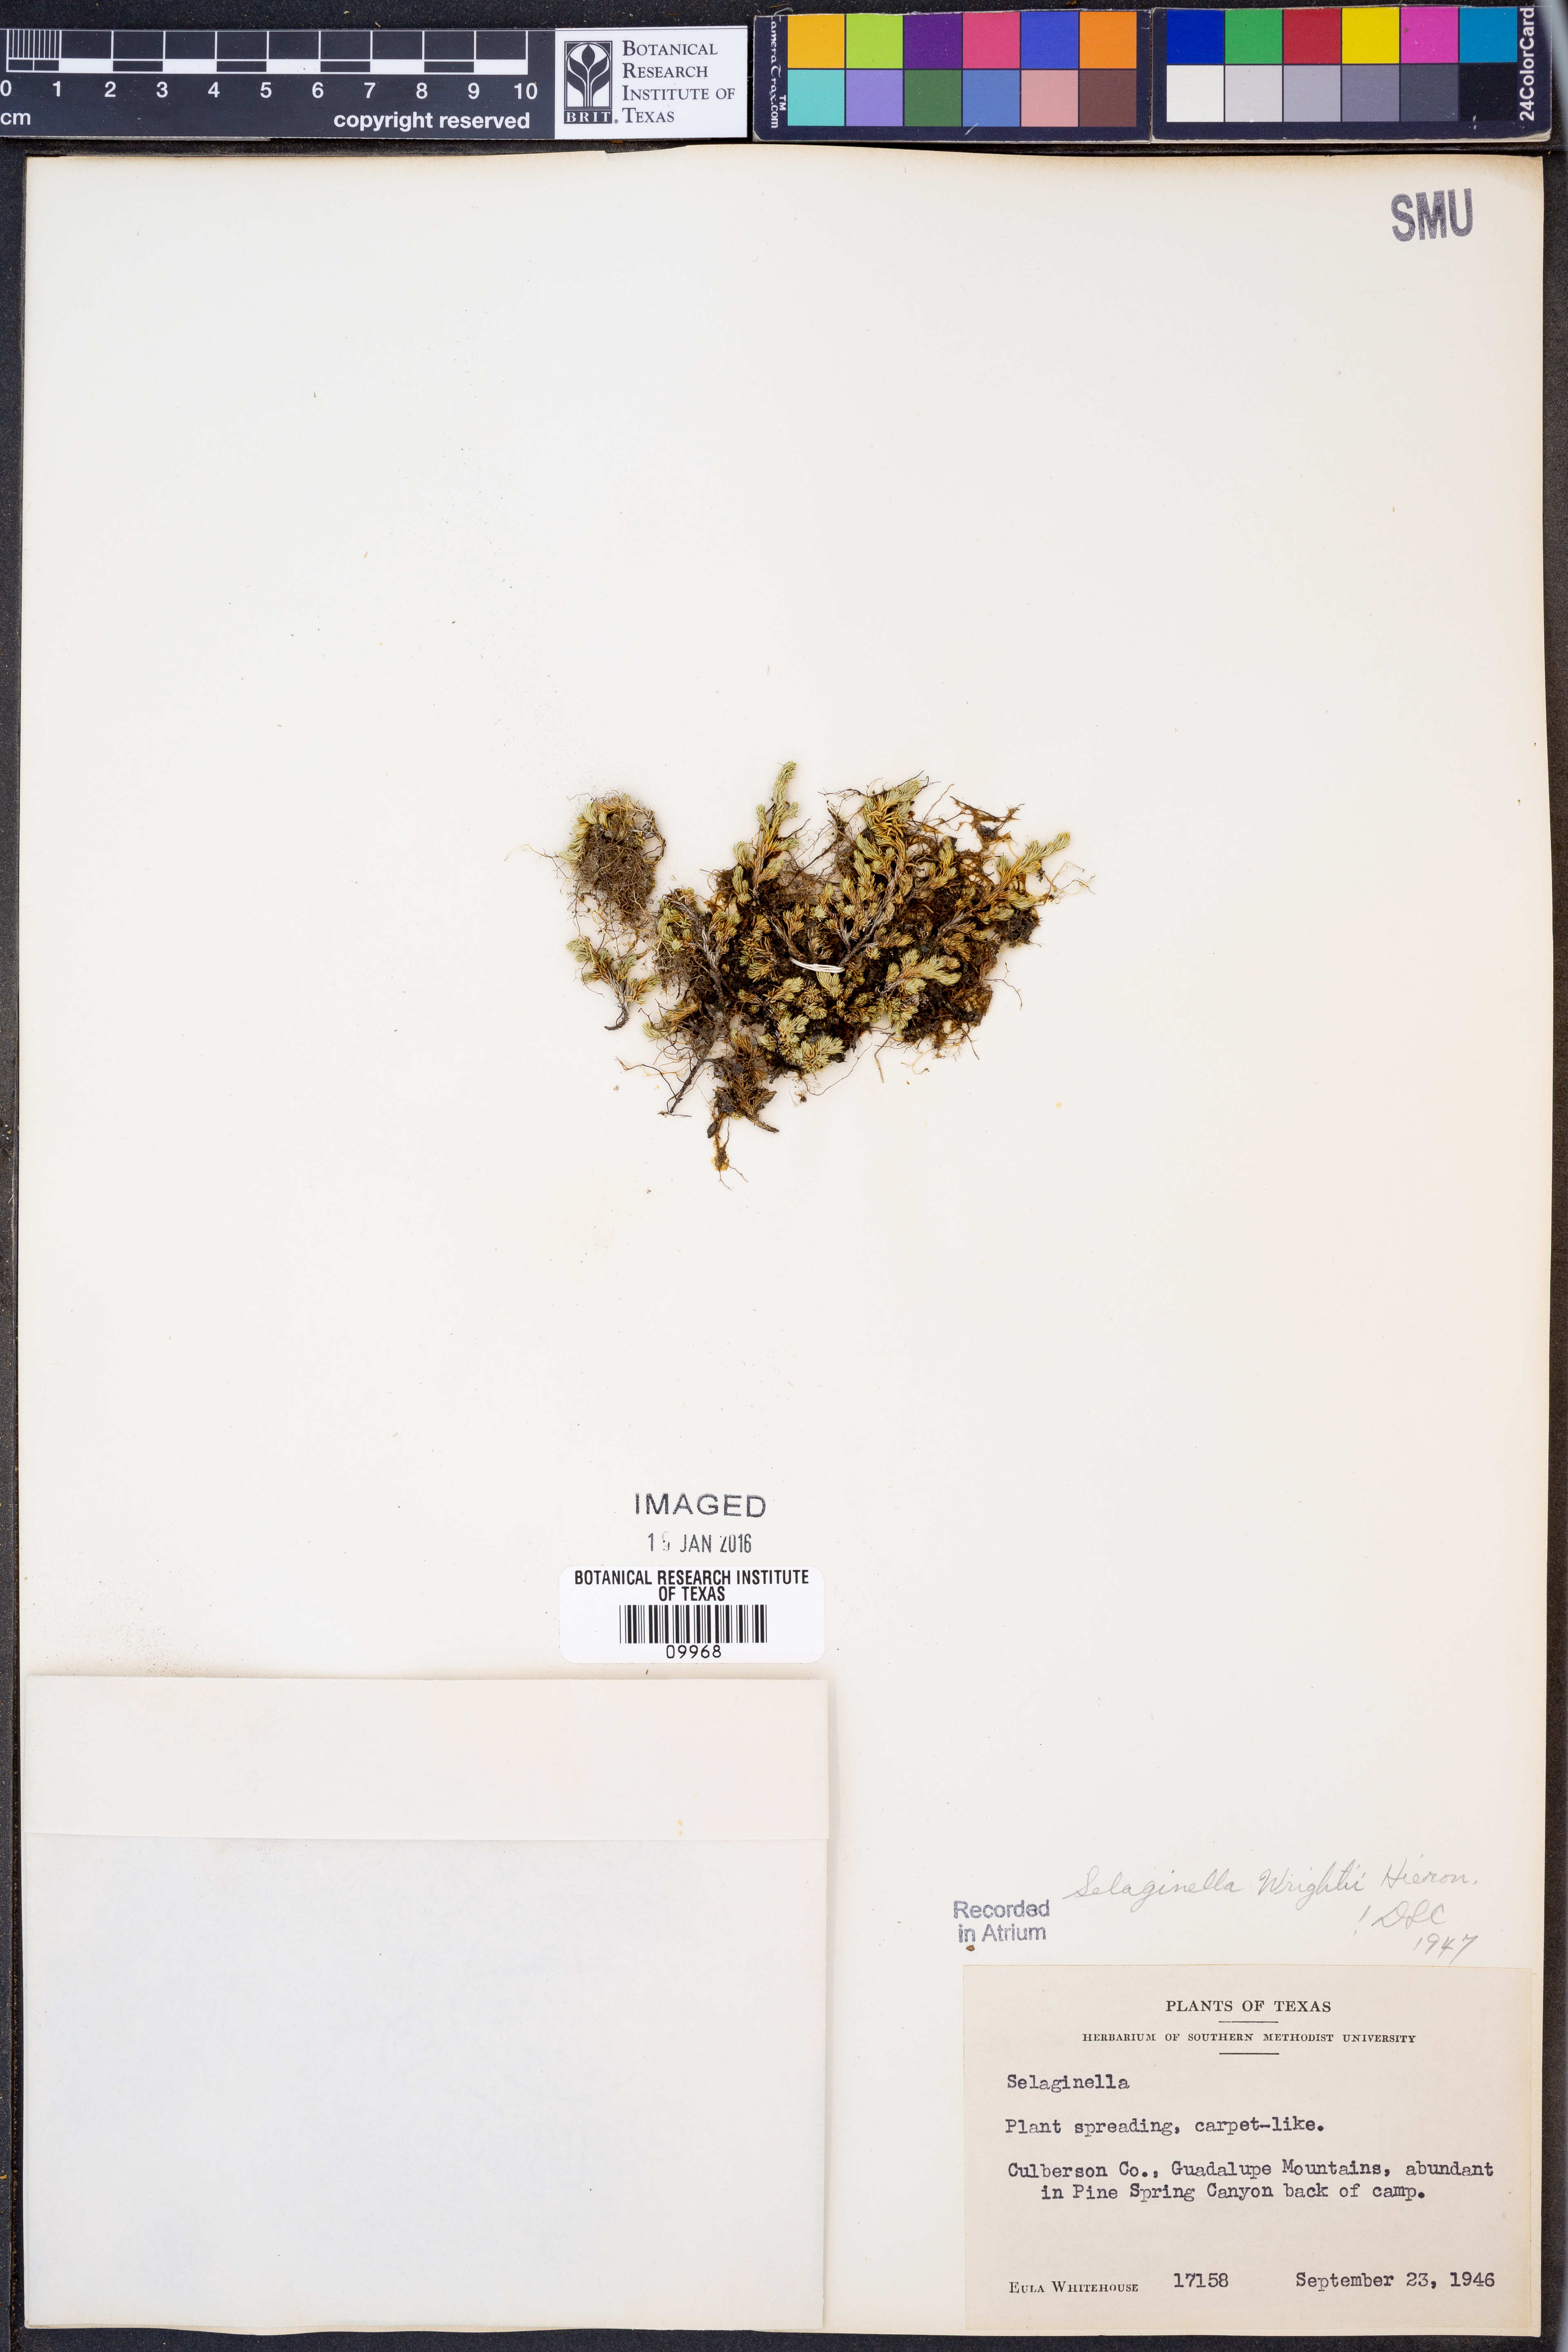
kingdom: Plantae
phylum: Tracheophyta
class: Lycopodiopsida
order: Selaginellales
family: Selaginellaceae
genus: Selaginella
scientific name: Selaginella peruviana
